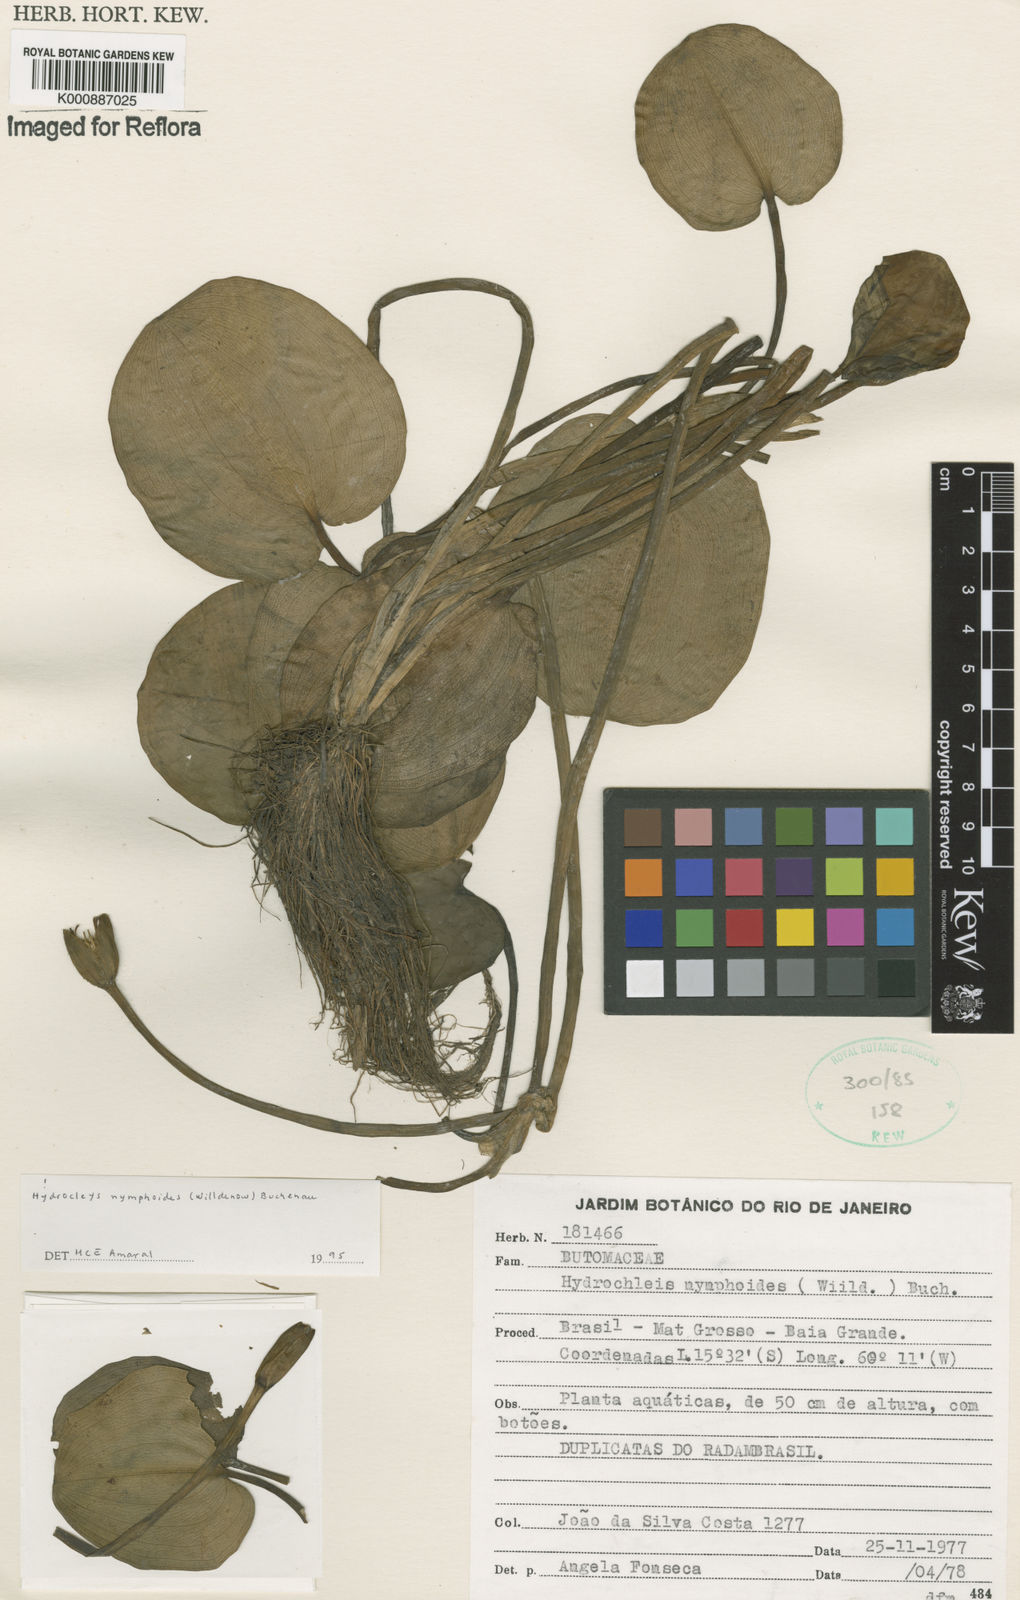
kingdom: Plantae
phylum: Tracheophyta
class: Liliopsida
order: Alismatales
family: Alismataceae
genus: Hydrocleys
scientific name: Hydrocleys nymphoides
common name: Water-poppy
